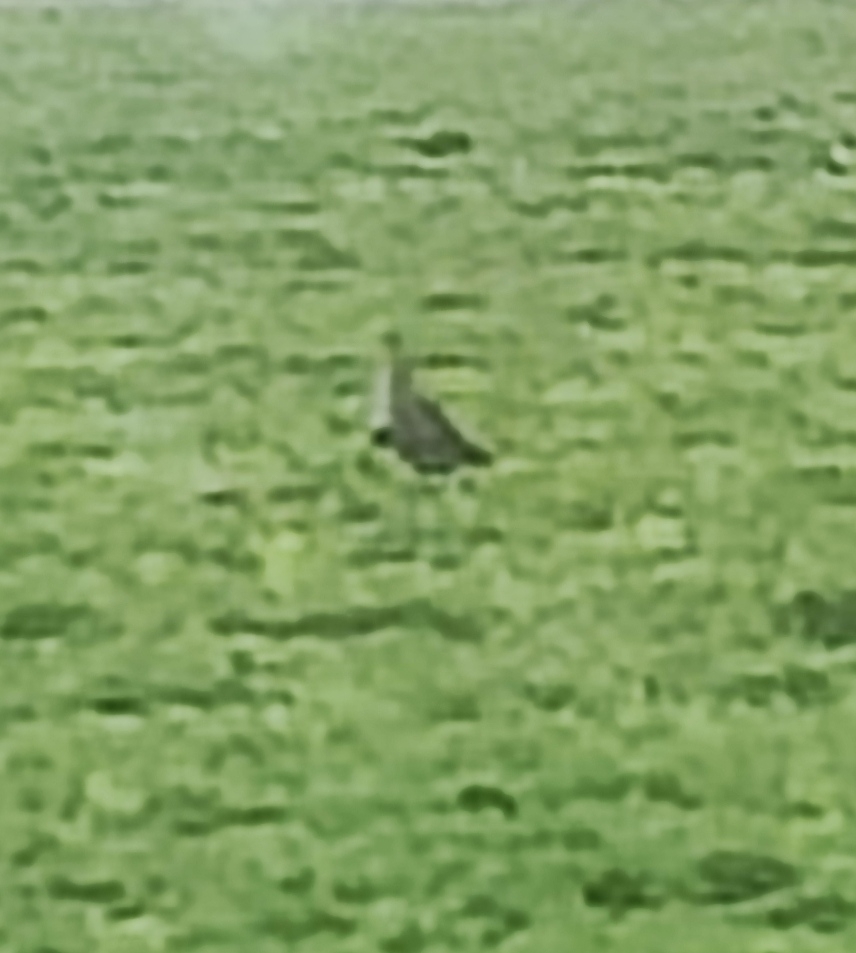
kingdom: Animalia
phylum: Chordata
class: Aves
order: Galliformes
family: Phasianidae
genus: Perdix
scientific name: Perdix perdix
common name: Agerhøne
